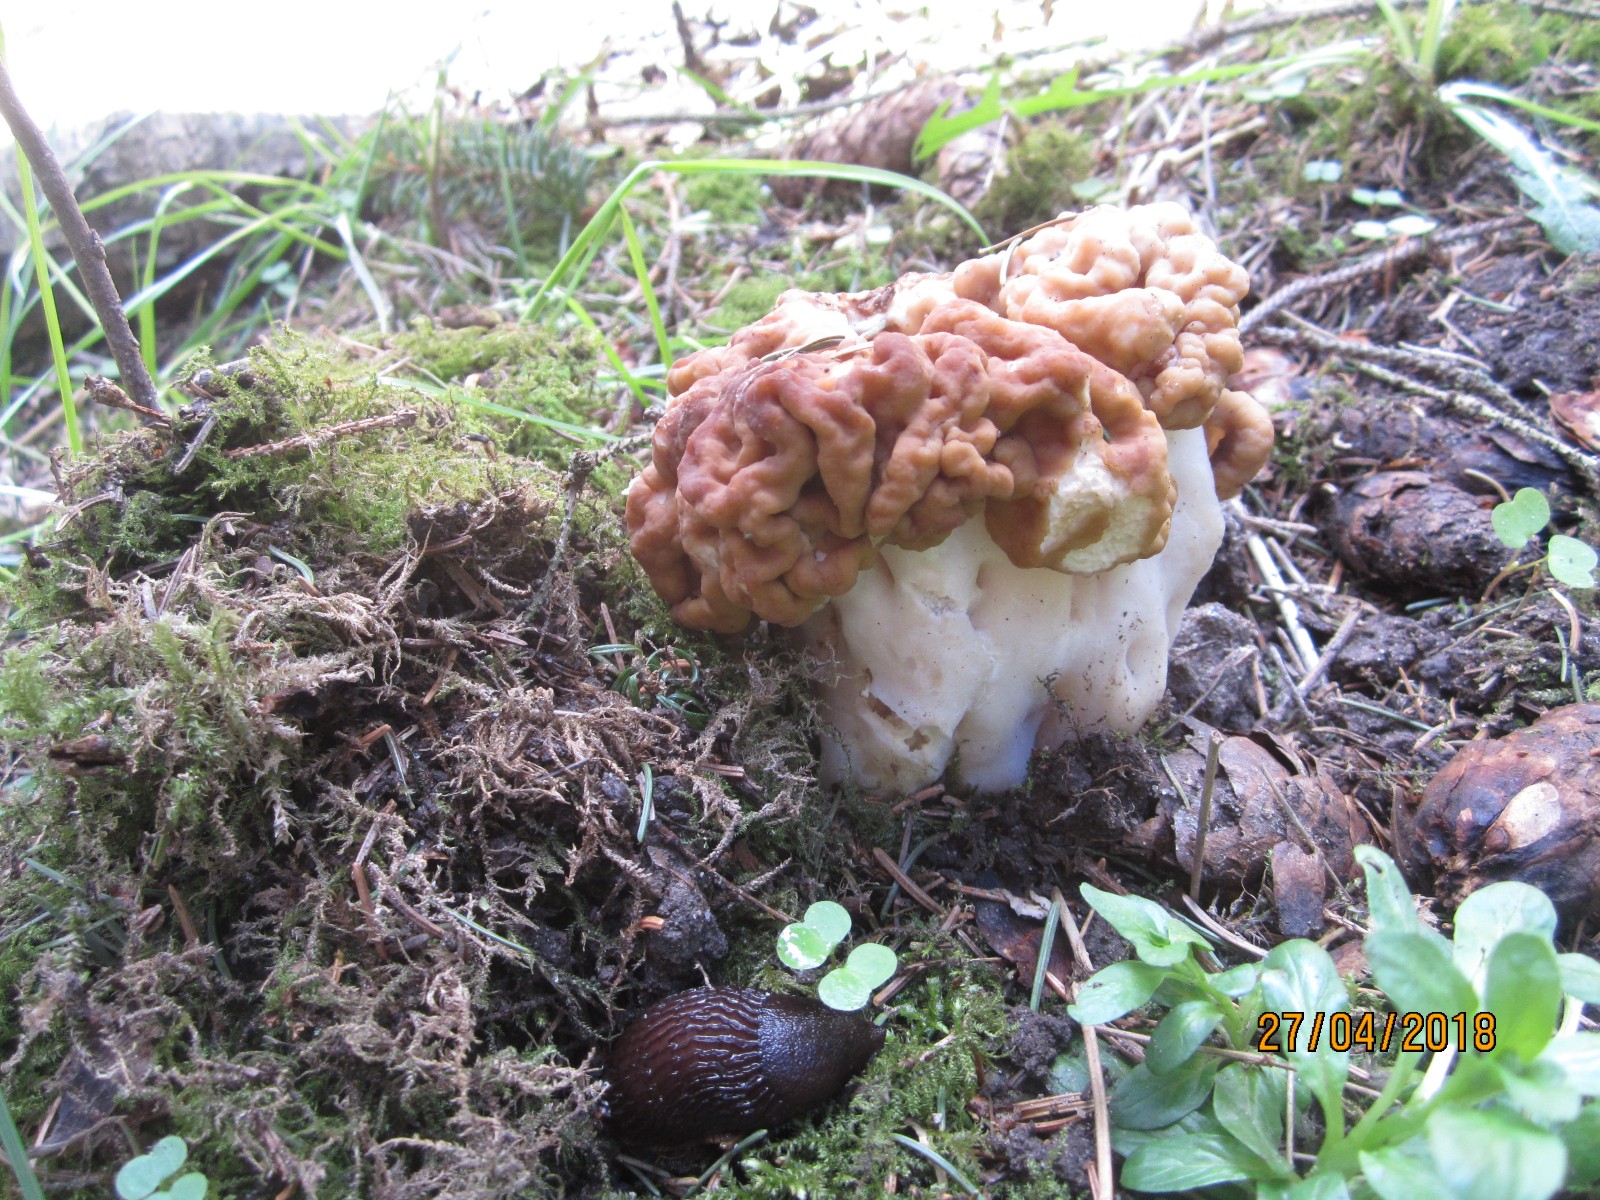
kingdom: Fungi
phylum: Ascomycota
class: Pezizomycetes
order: Pezizales
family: Discinaceae
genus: Gyromitra
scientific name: Gyromitra gigas
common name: kæmpe-stenmorkel
